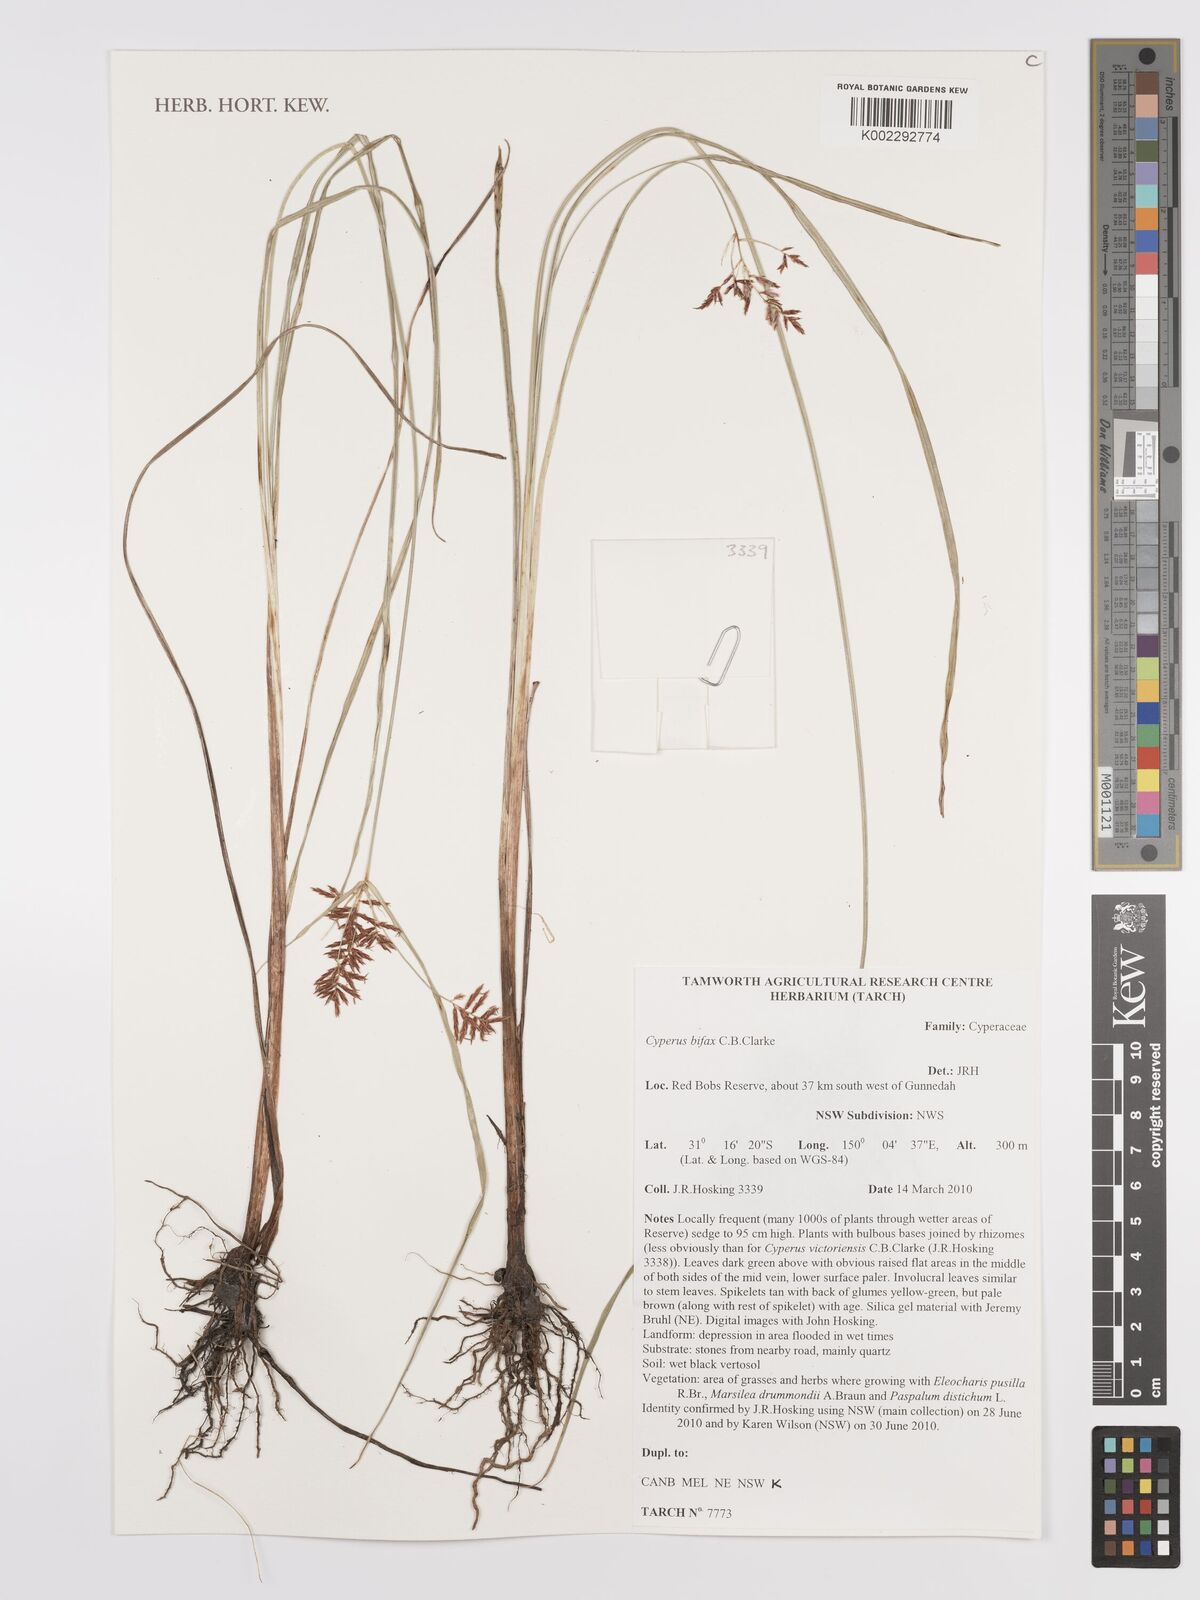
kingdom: Plantae
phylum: Tracheophyta
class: Liliopsida
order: Poales
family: Cyperaceae
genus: Cyperus
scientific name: Cyperus rotundus
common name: Nutgrass
